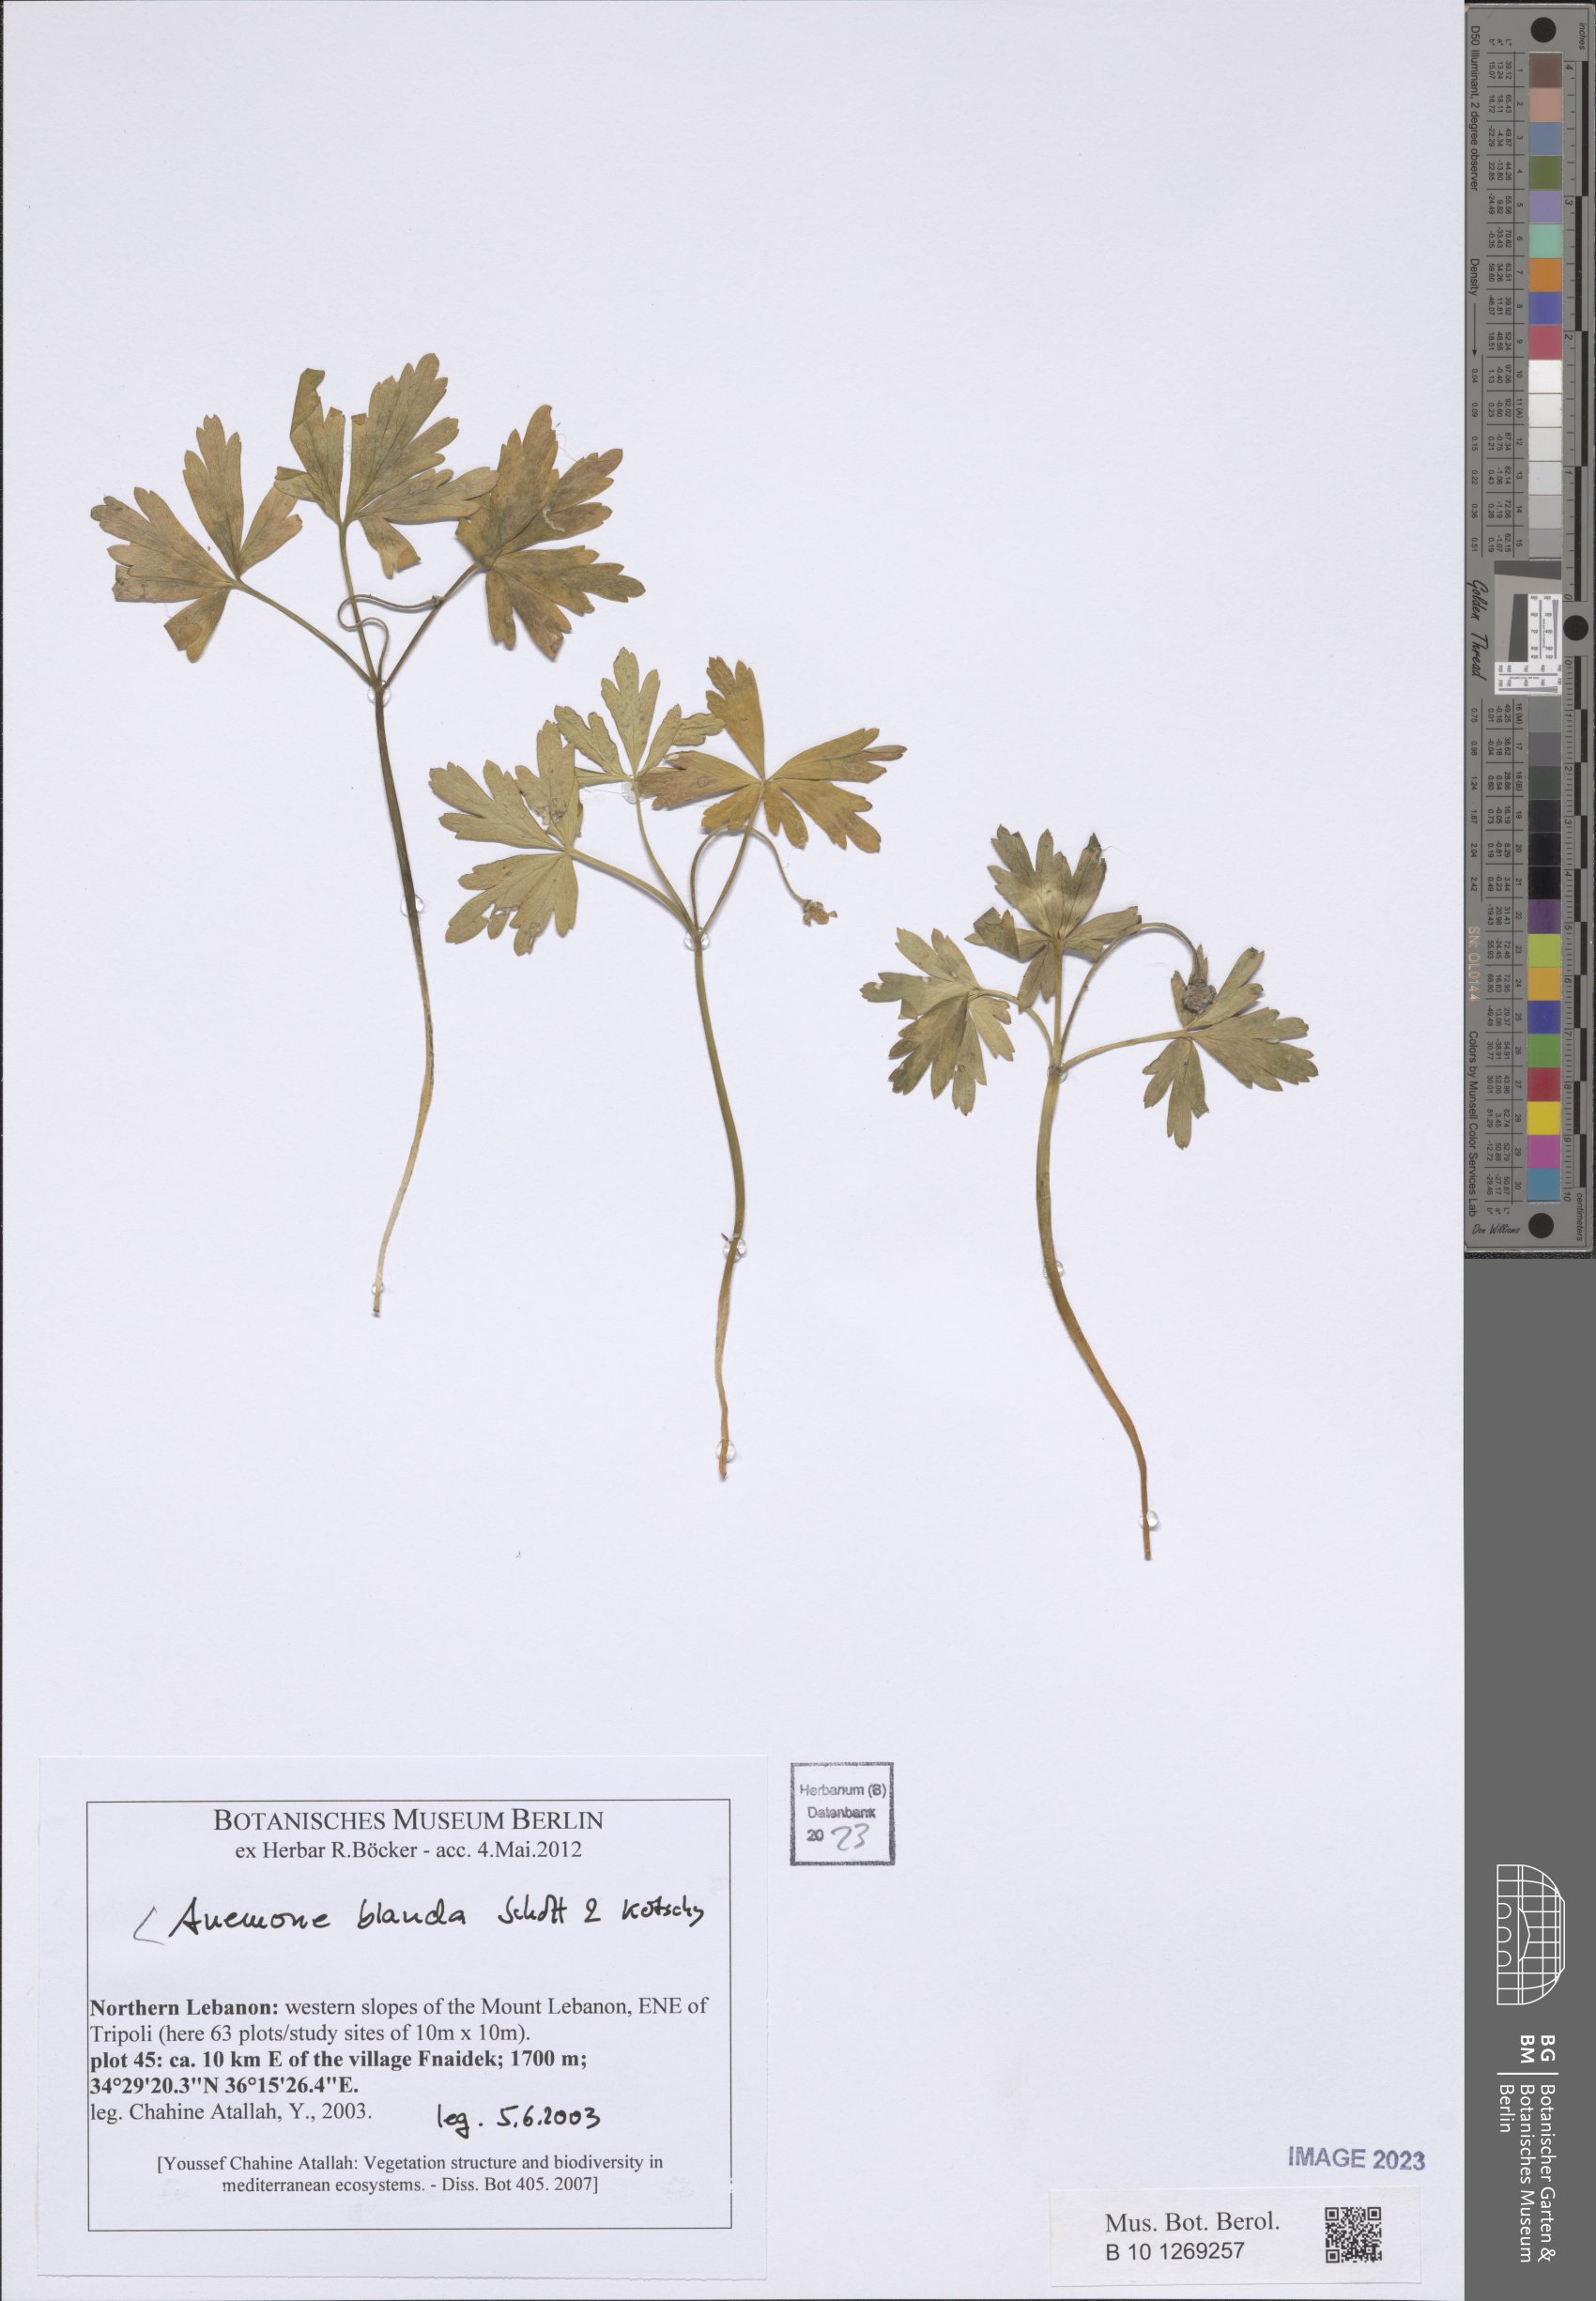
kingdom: Plantae
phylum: Tracheophyta
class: Magnoliopsida
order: Ranunculales
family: Ranunculaceae
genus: Anemone
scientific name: Anemone blanda
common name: Balkan anemone
